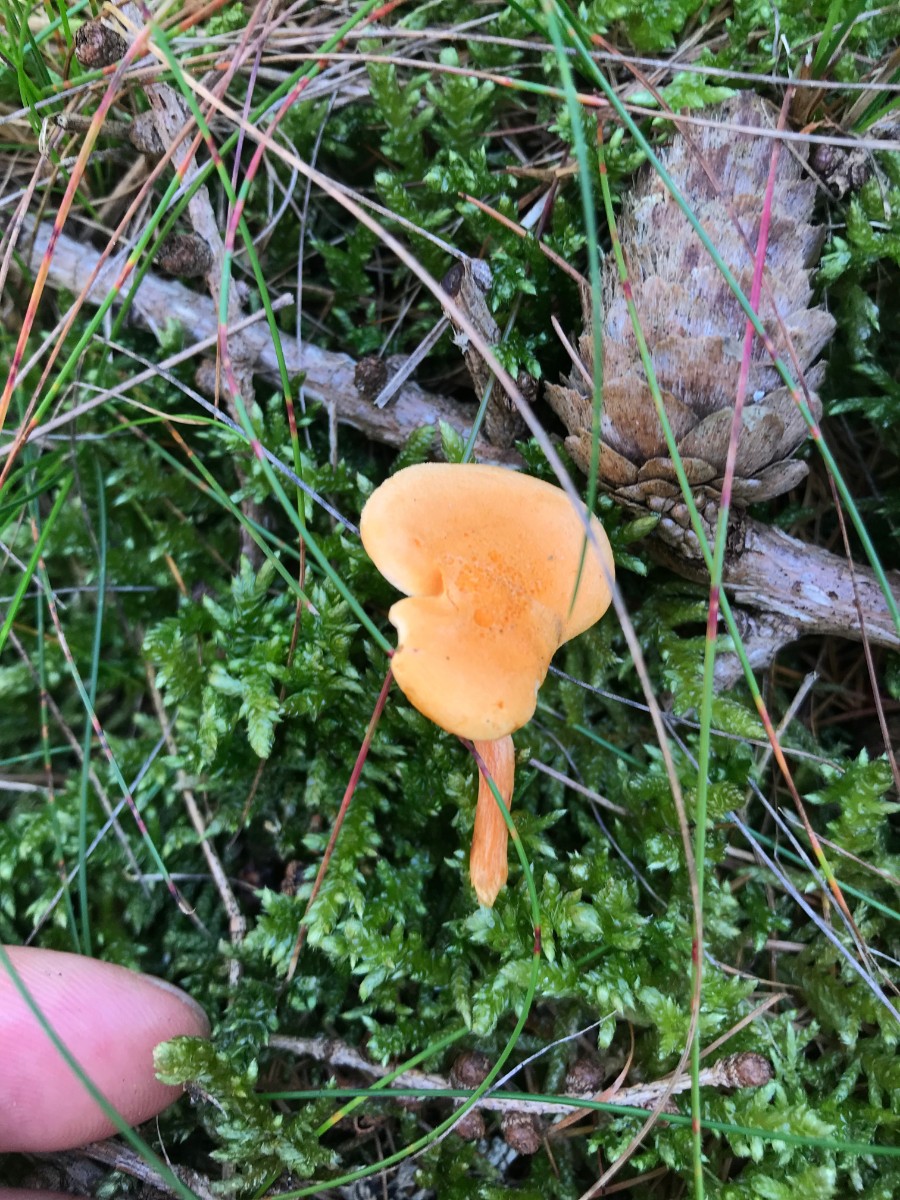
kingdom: Fungi
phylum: Basidiomycota
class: Agaricomycetes
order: Boletales
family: Hygrophoropsidaceae
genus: Hygrophoropsis
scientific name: Hygrophoropsis aurantiaca
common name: almindelig orangekantarel
